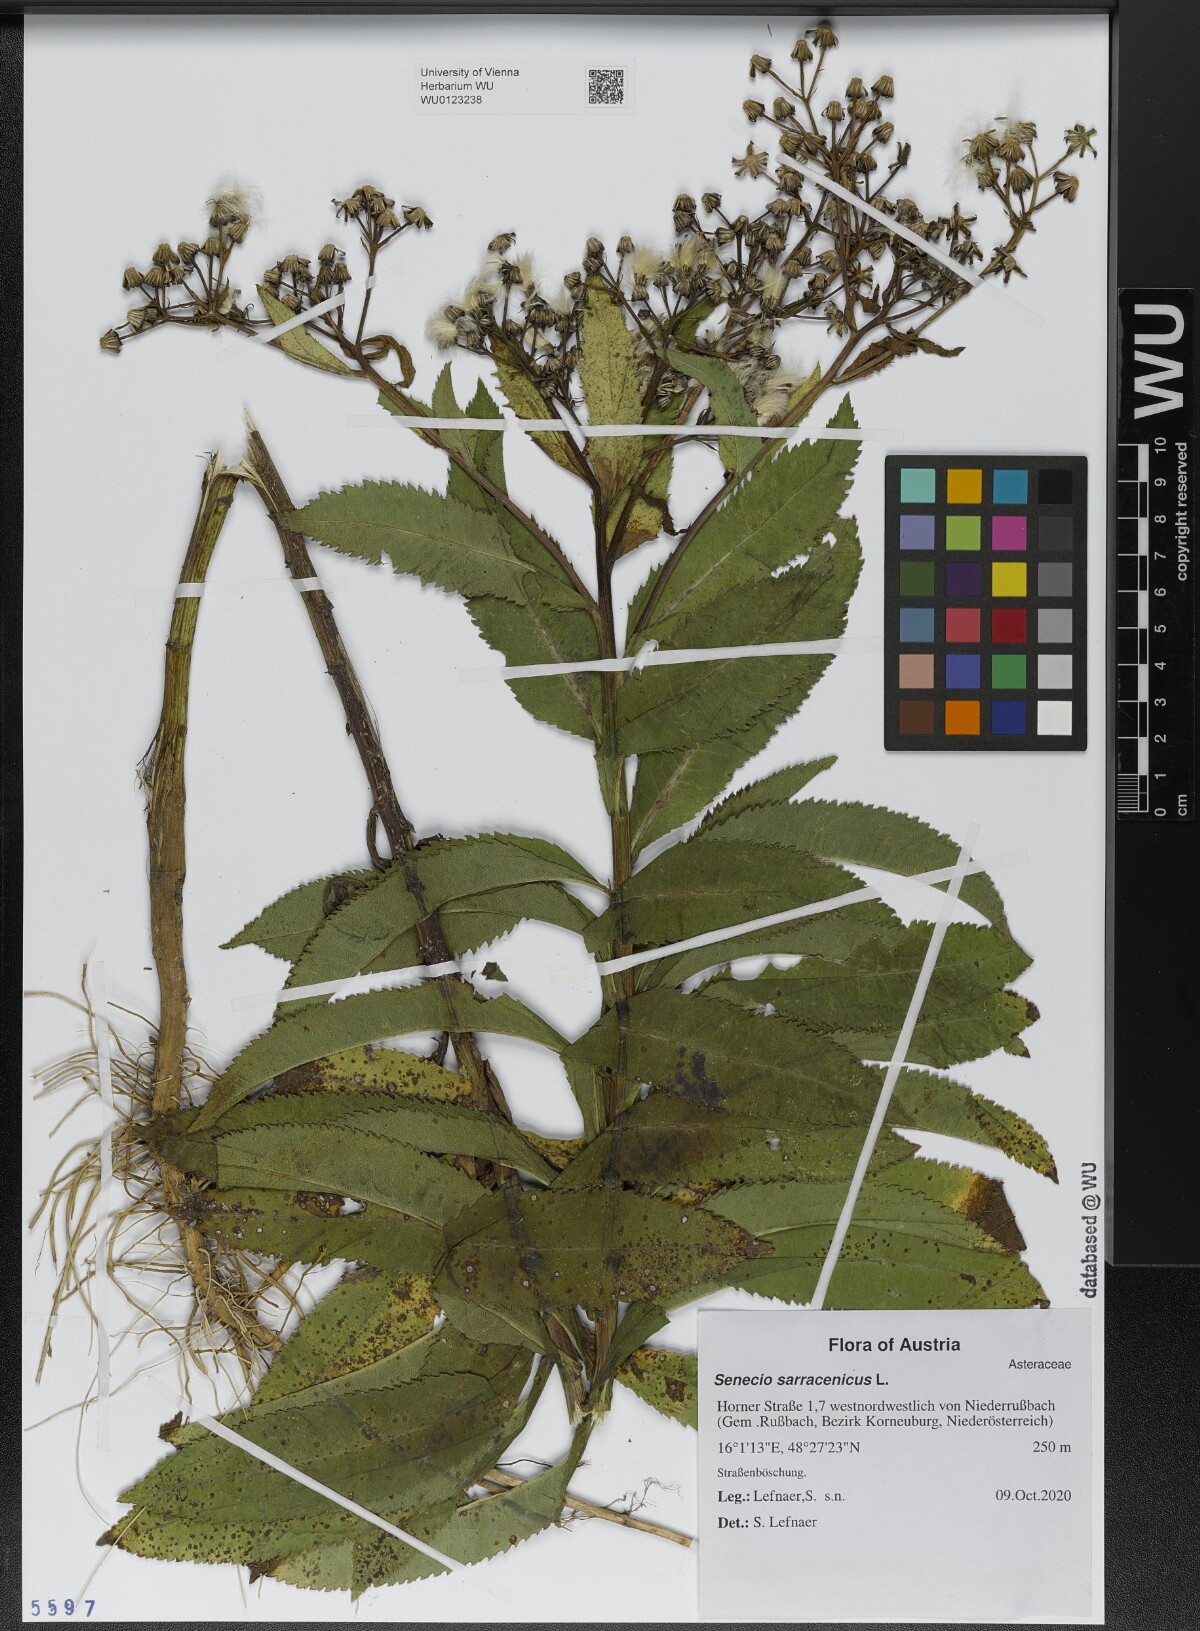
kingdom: Plantae
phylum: Tracheophyta
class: Magnoliopsida
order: Asterales
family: Asteraceae
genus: Senecio
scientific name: Senecio sarracenicus
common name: Broad-leaved ragwort
